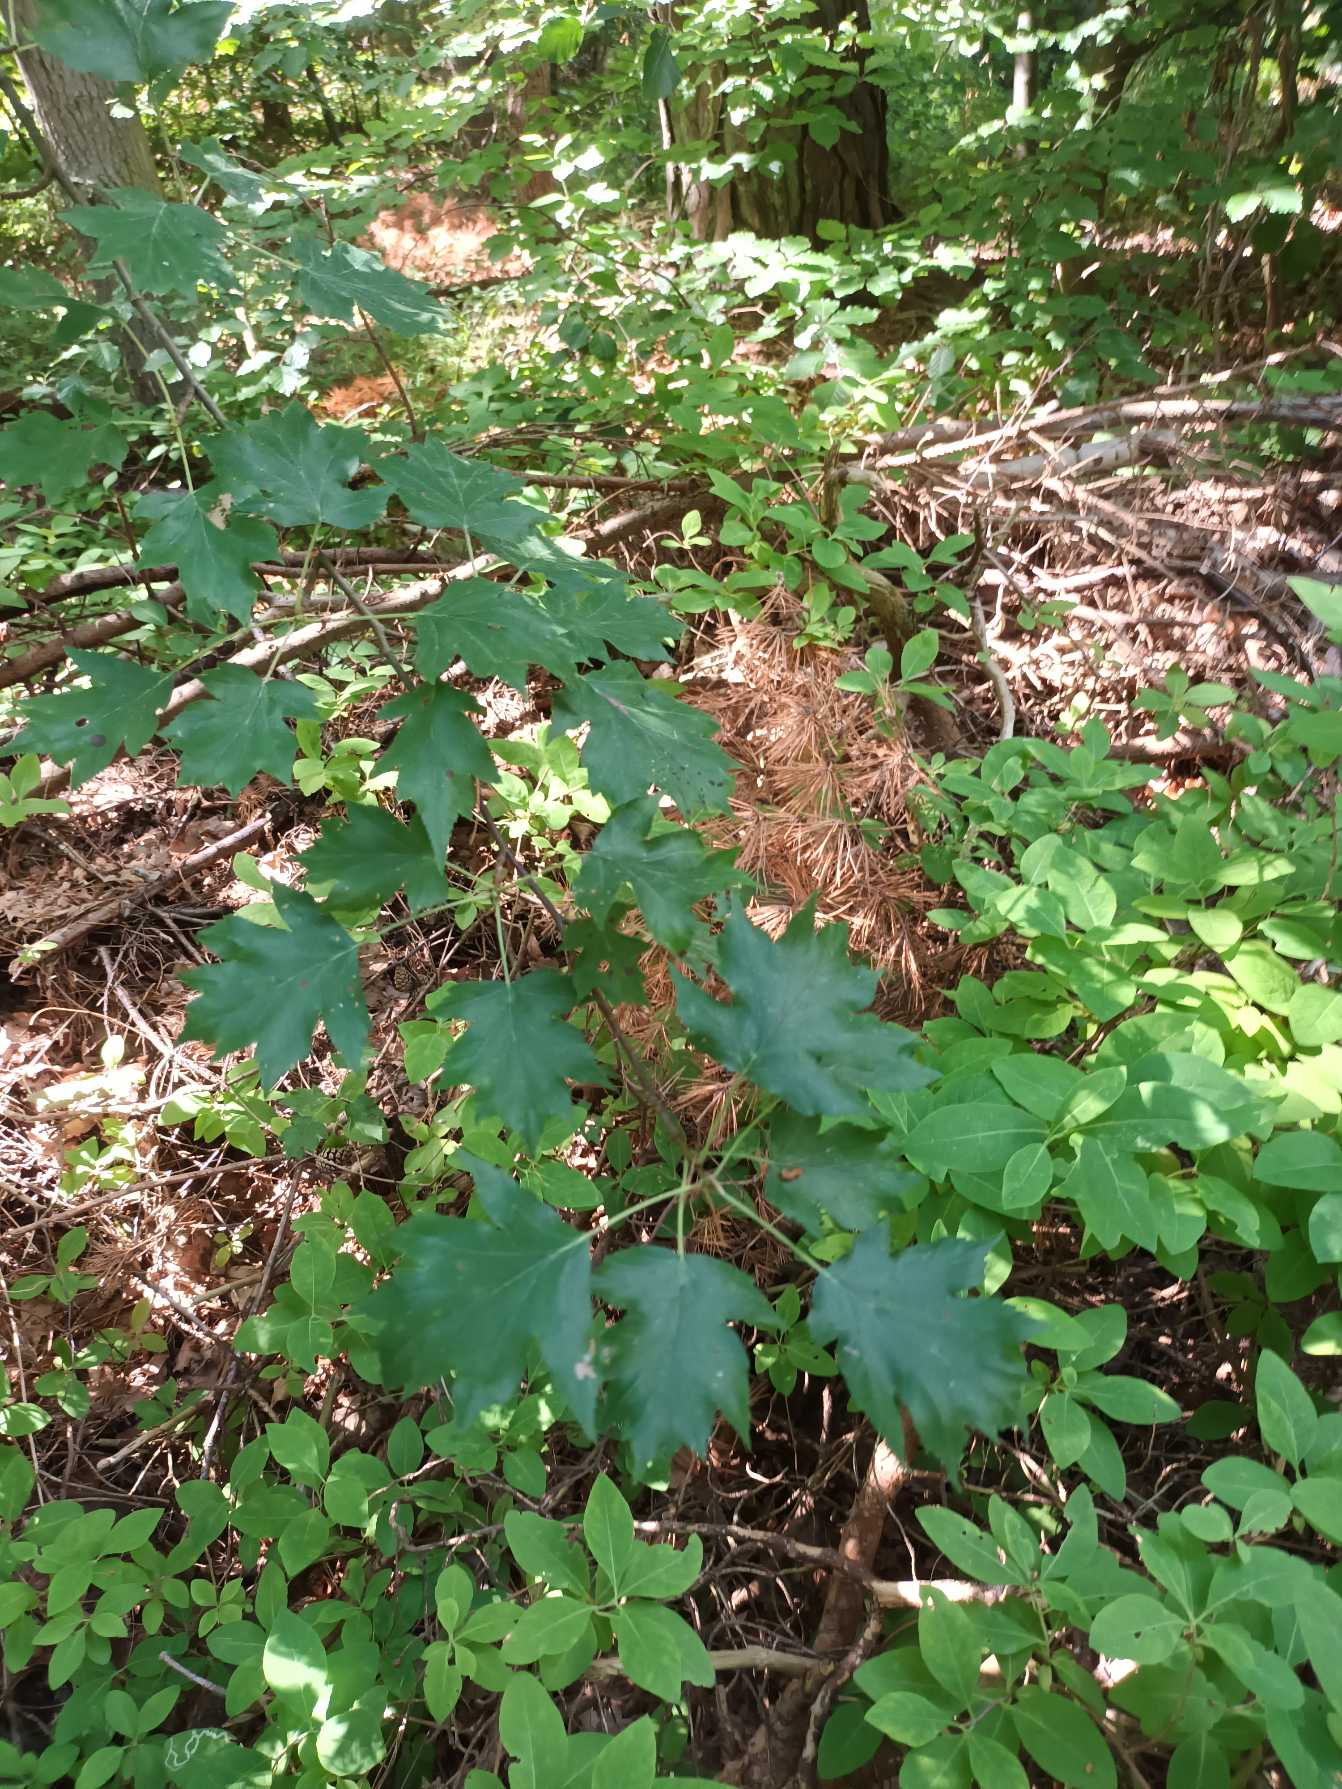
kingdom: Plantae
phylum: Tracheophyta
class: Magnoliopsida
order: Rosales
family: Rosaceae
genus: Torminalis
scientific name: Torminalis glaberrima
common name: Tarmvrid-røn
